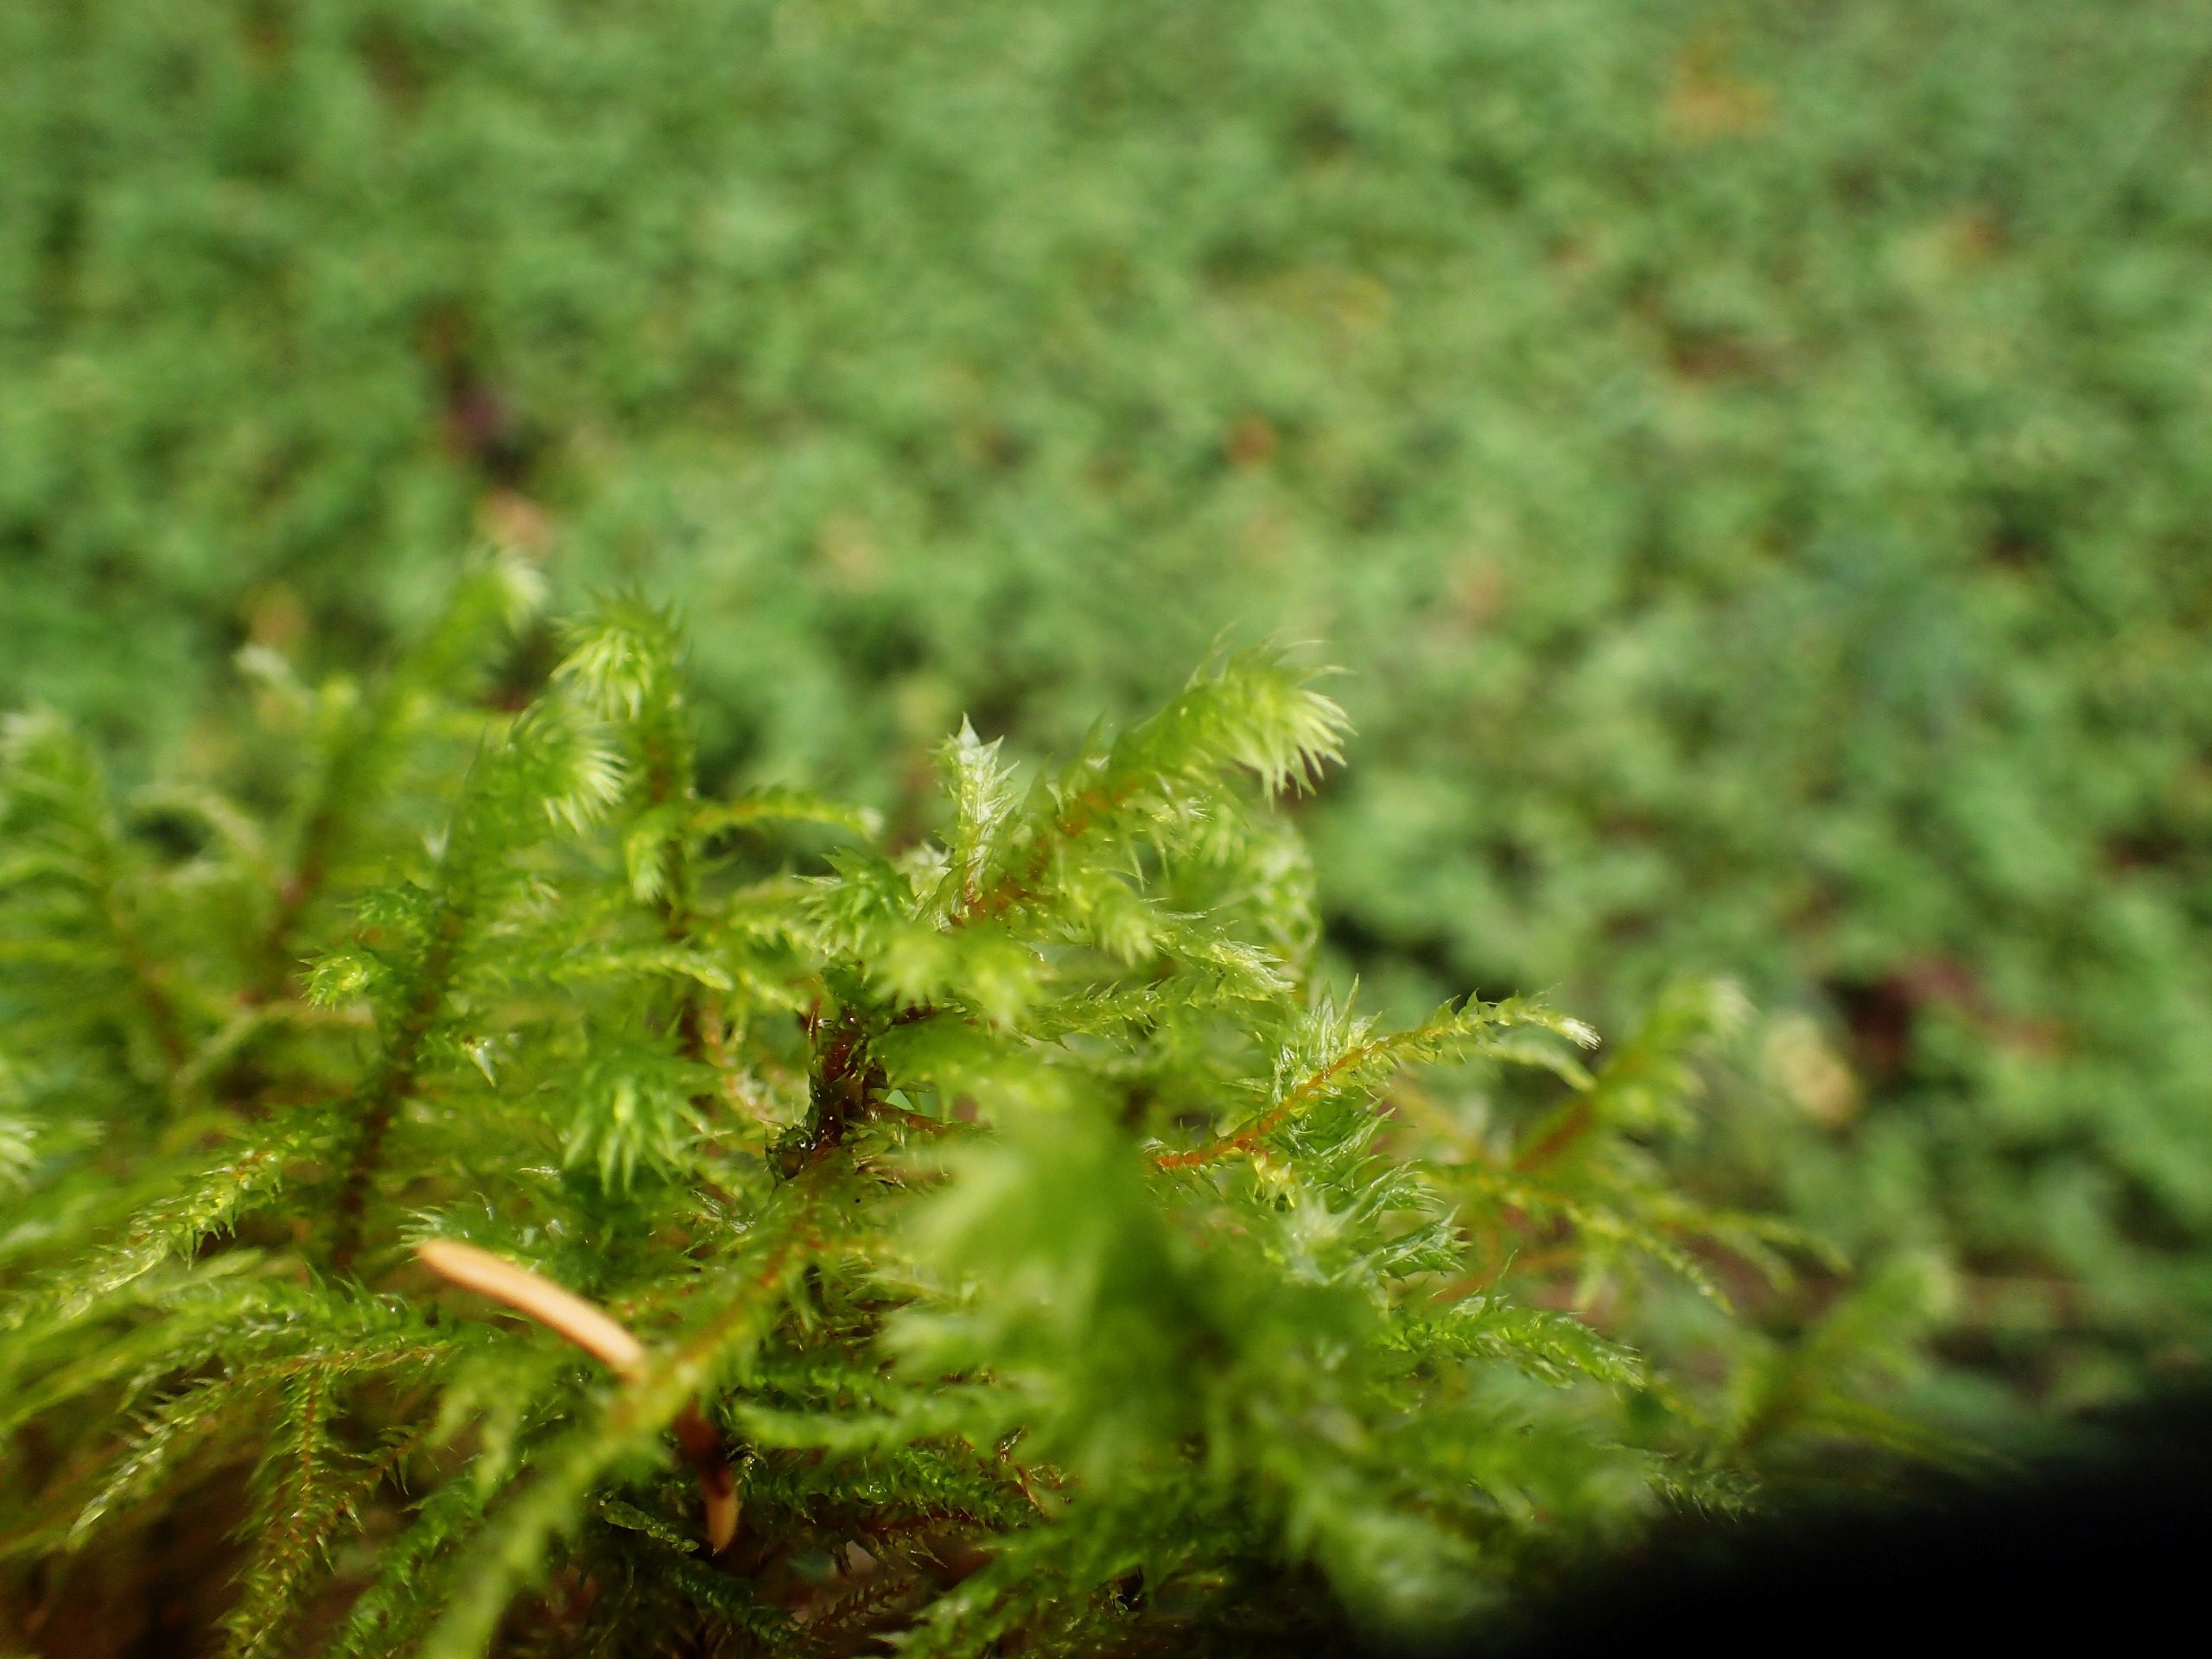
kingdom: Plantae
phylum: Bryophyta
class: Bryopsida
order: Hypnales
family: Hylocomiaceae
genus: Hylocomiadelphus
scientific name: Hylocomiadelphus triquetrus
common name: Stor kransemos
